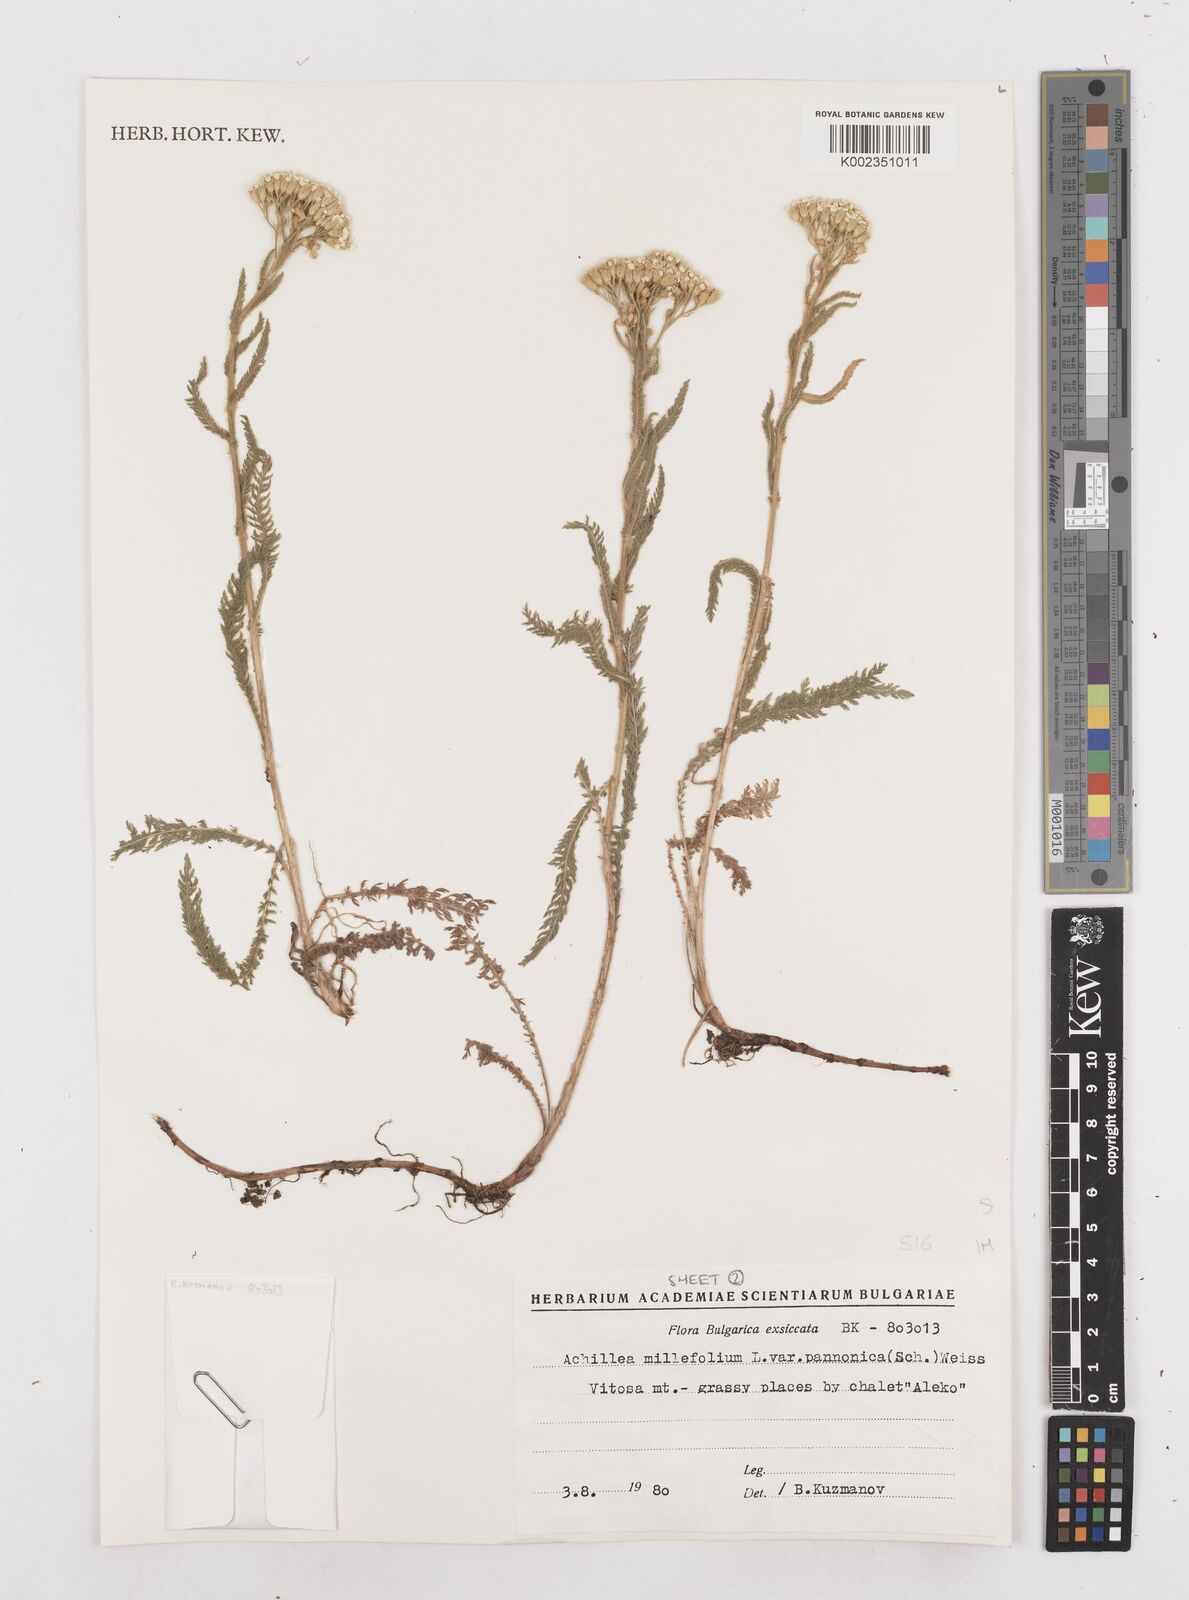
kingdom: Plantae
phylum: Tracheophyta
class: Magnoliopsida
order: Asterales
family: Asteraceae
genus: Achillea
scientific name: Achillea millefolium
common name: Yarrow
